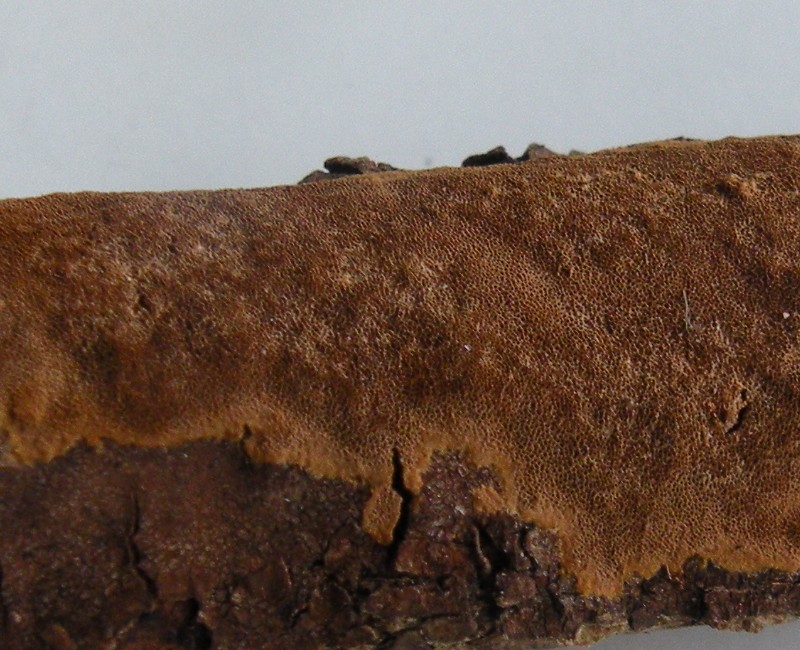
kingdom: Fungi
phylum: Basidiomycota
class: Agaricomycetes
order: Hymenochaetales
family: Hymenochaetaceae
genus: Fuscoporia
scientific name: Fuscoporia ferruginosa
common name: rustbrun ildporesvamp
